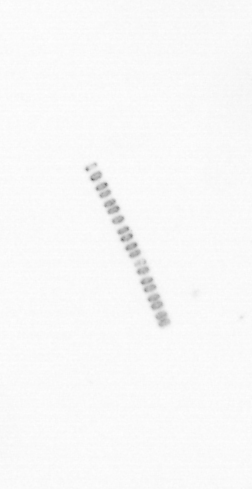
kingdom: Chromista
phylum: Ochrophyta
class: Bacillariophyceae
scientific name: Bacillariophyceae
